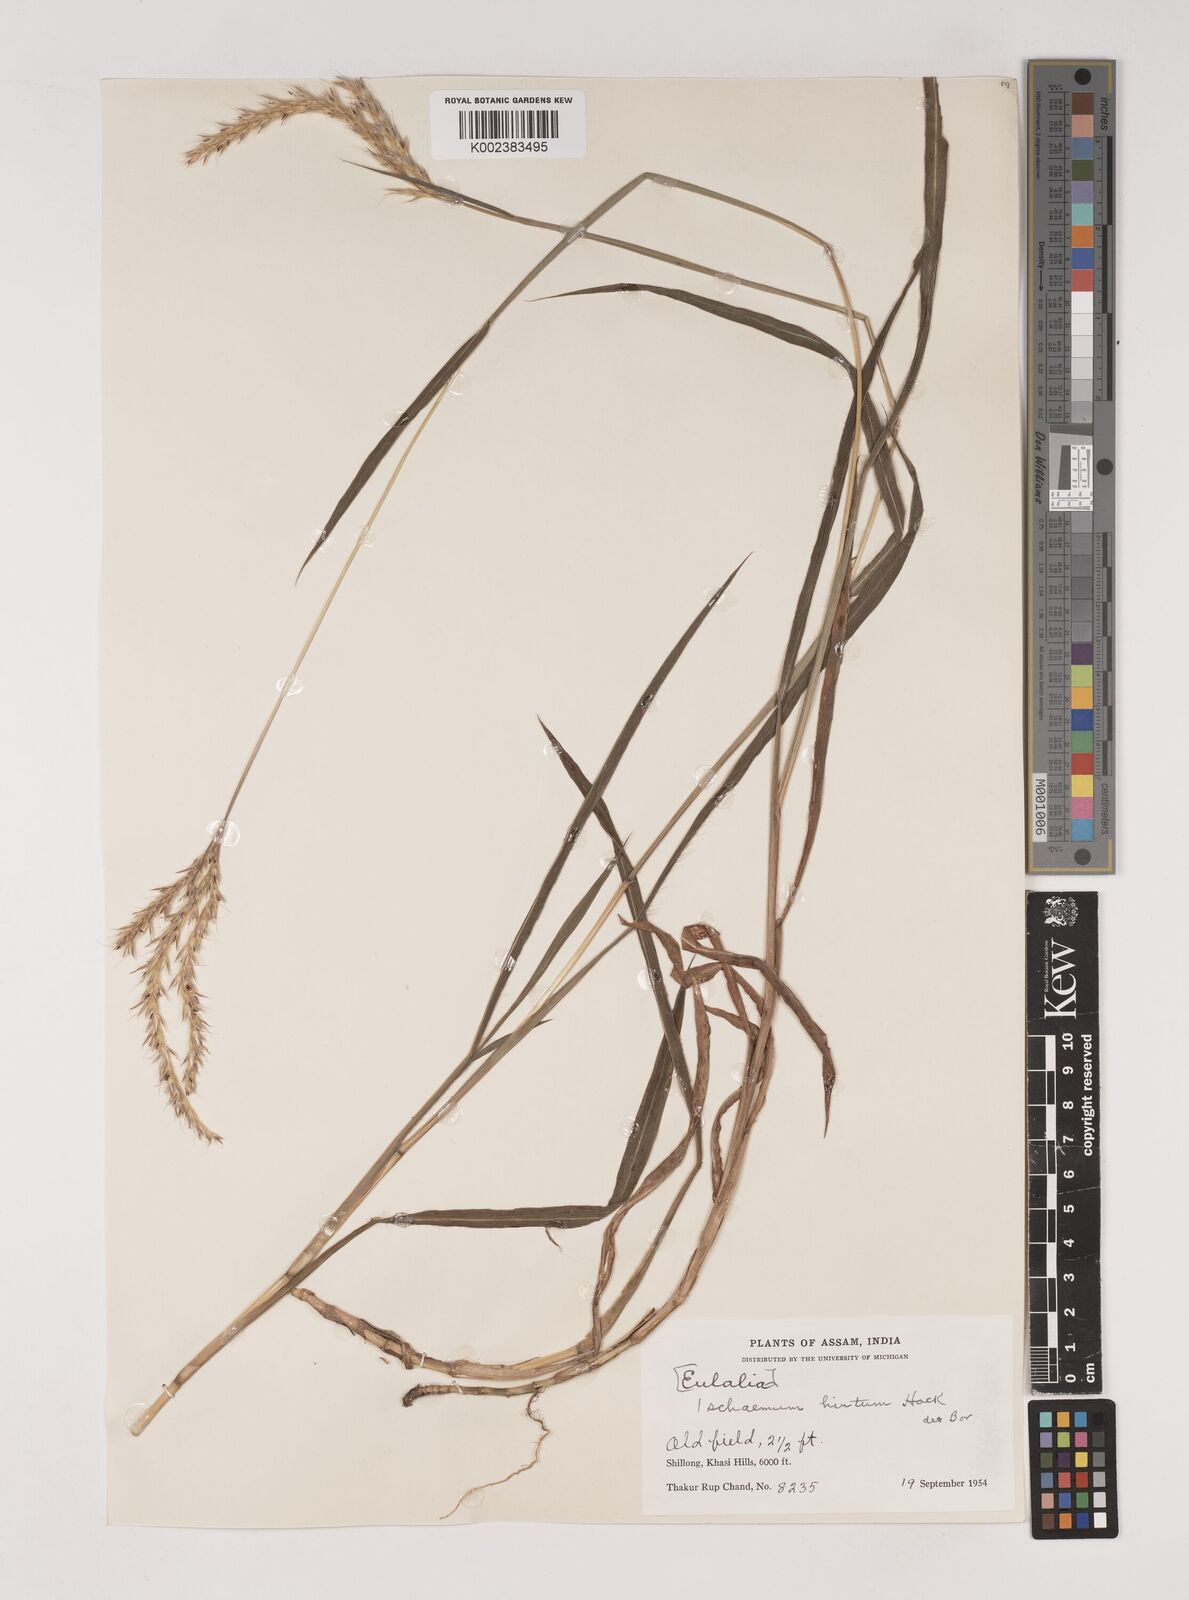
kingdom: Plantae
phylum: Tracheophyta
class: Liliopsida
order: Poales
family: Poaceae
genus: Ischaemum
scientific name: Ischaemum
